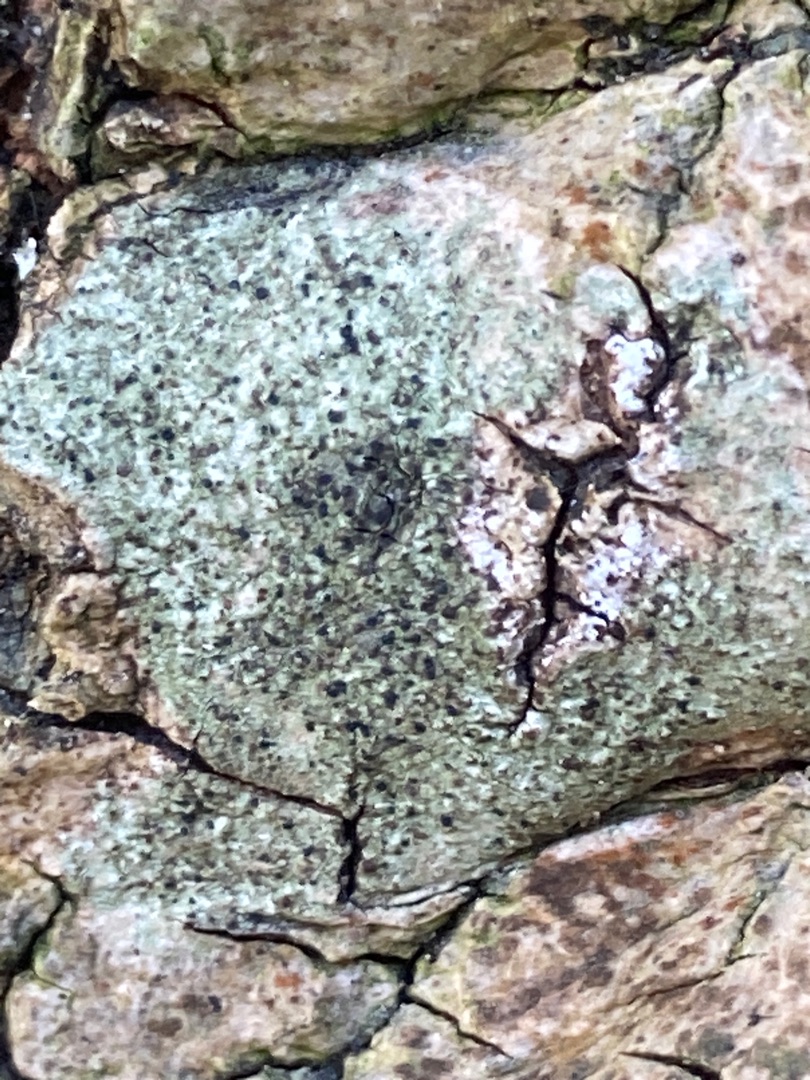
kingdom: Fungi
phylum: Ascomycota
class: Lecanoromycetes
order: Lecanorales
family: Lecanoraceae
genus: Lecidella
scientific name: Lecidella elaeochroma
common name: Grågrøn skivelav
